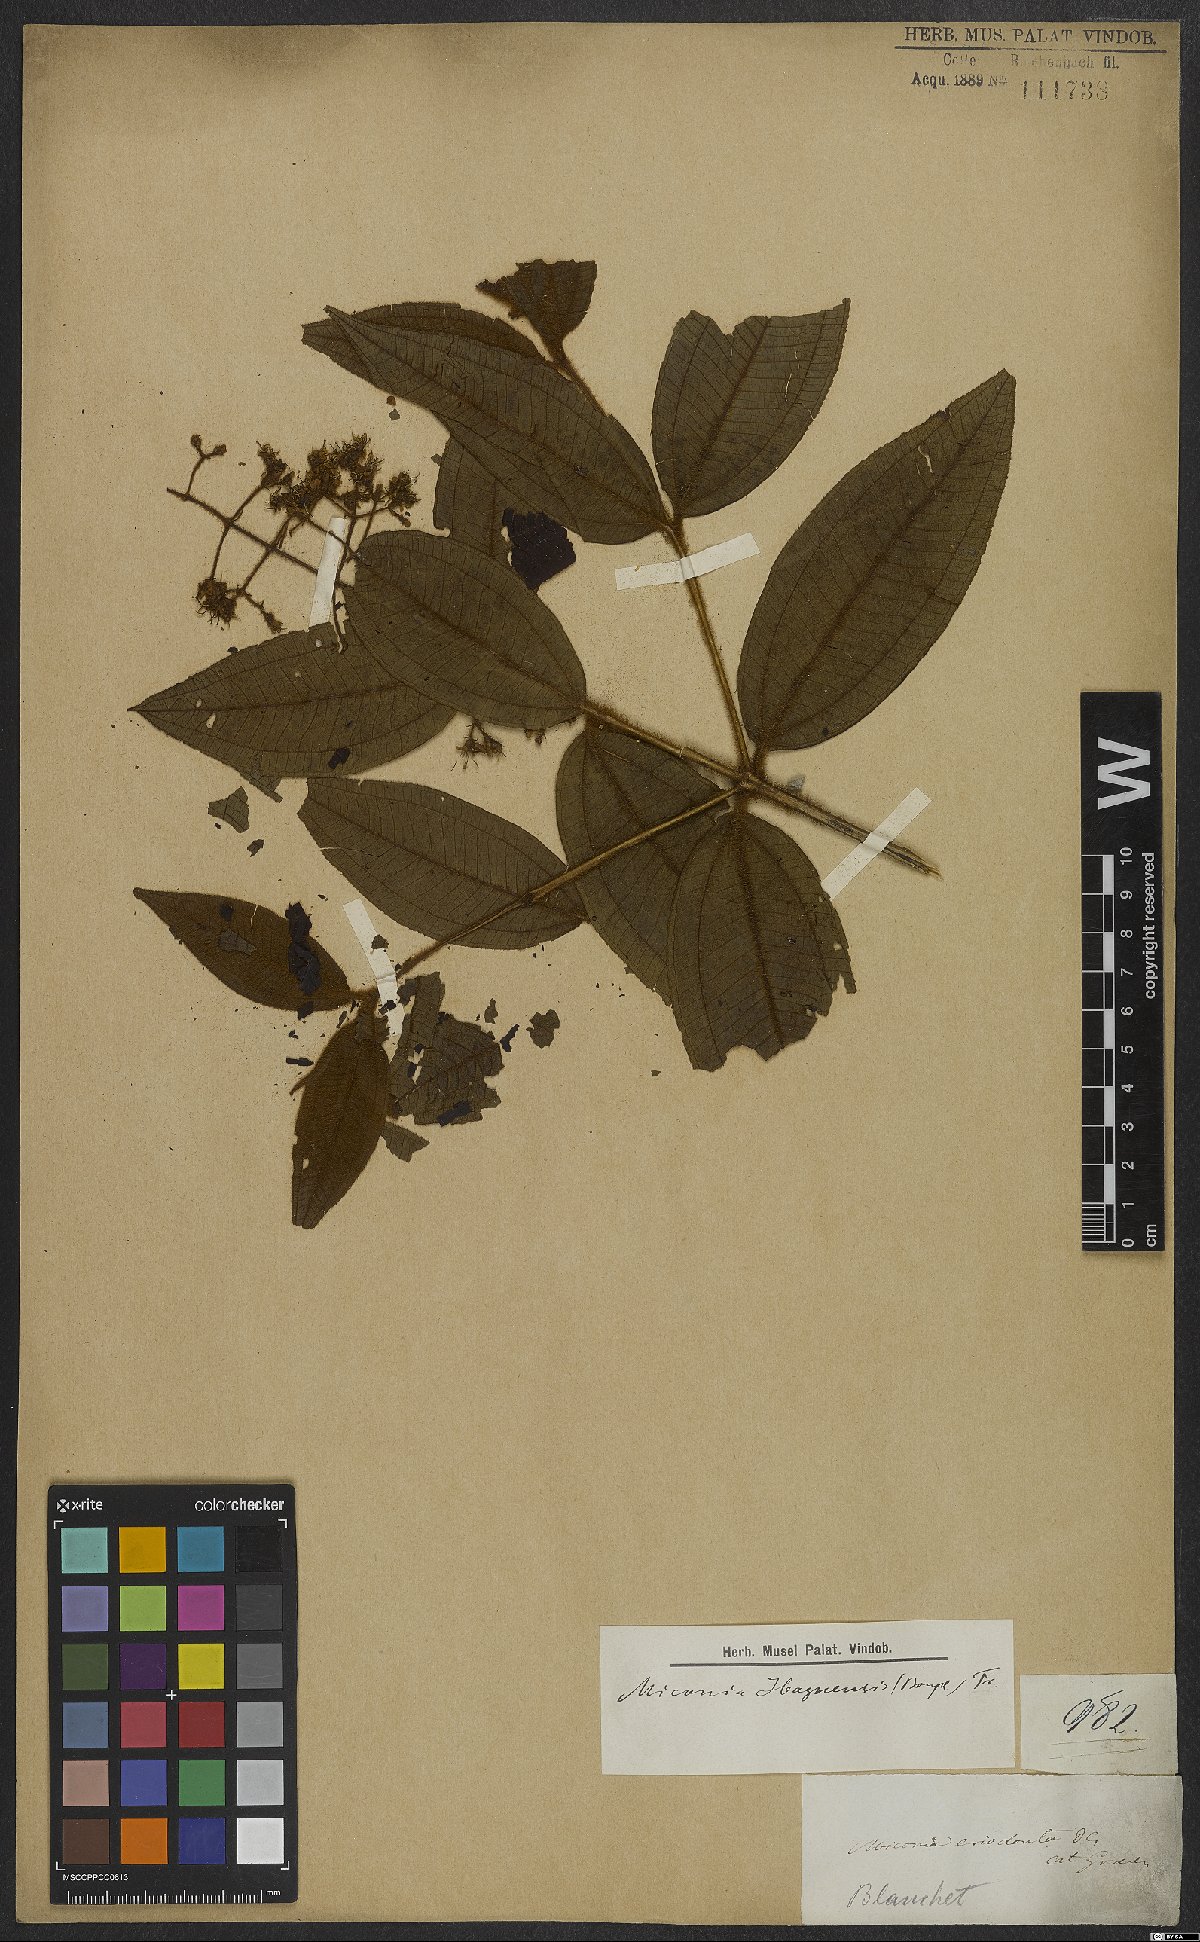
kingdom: Plantae
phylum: Tracheophyta
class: Magnoliopsida
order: Myrtales
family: Melastomataceae
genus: Miconia
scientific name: Miconia ibaguensis
